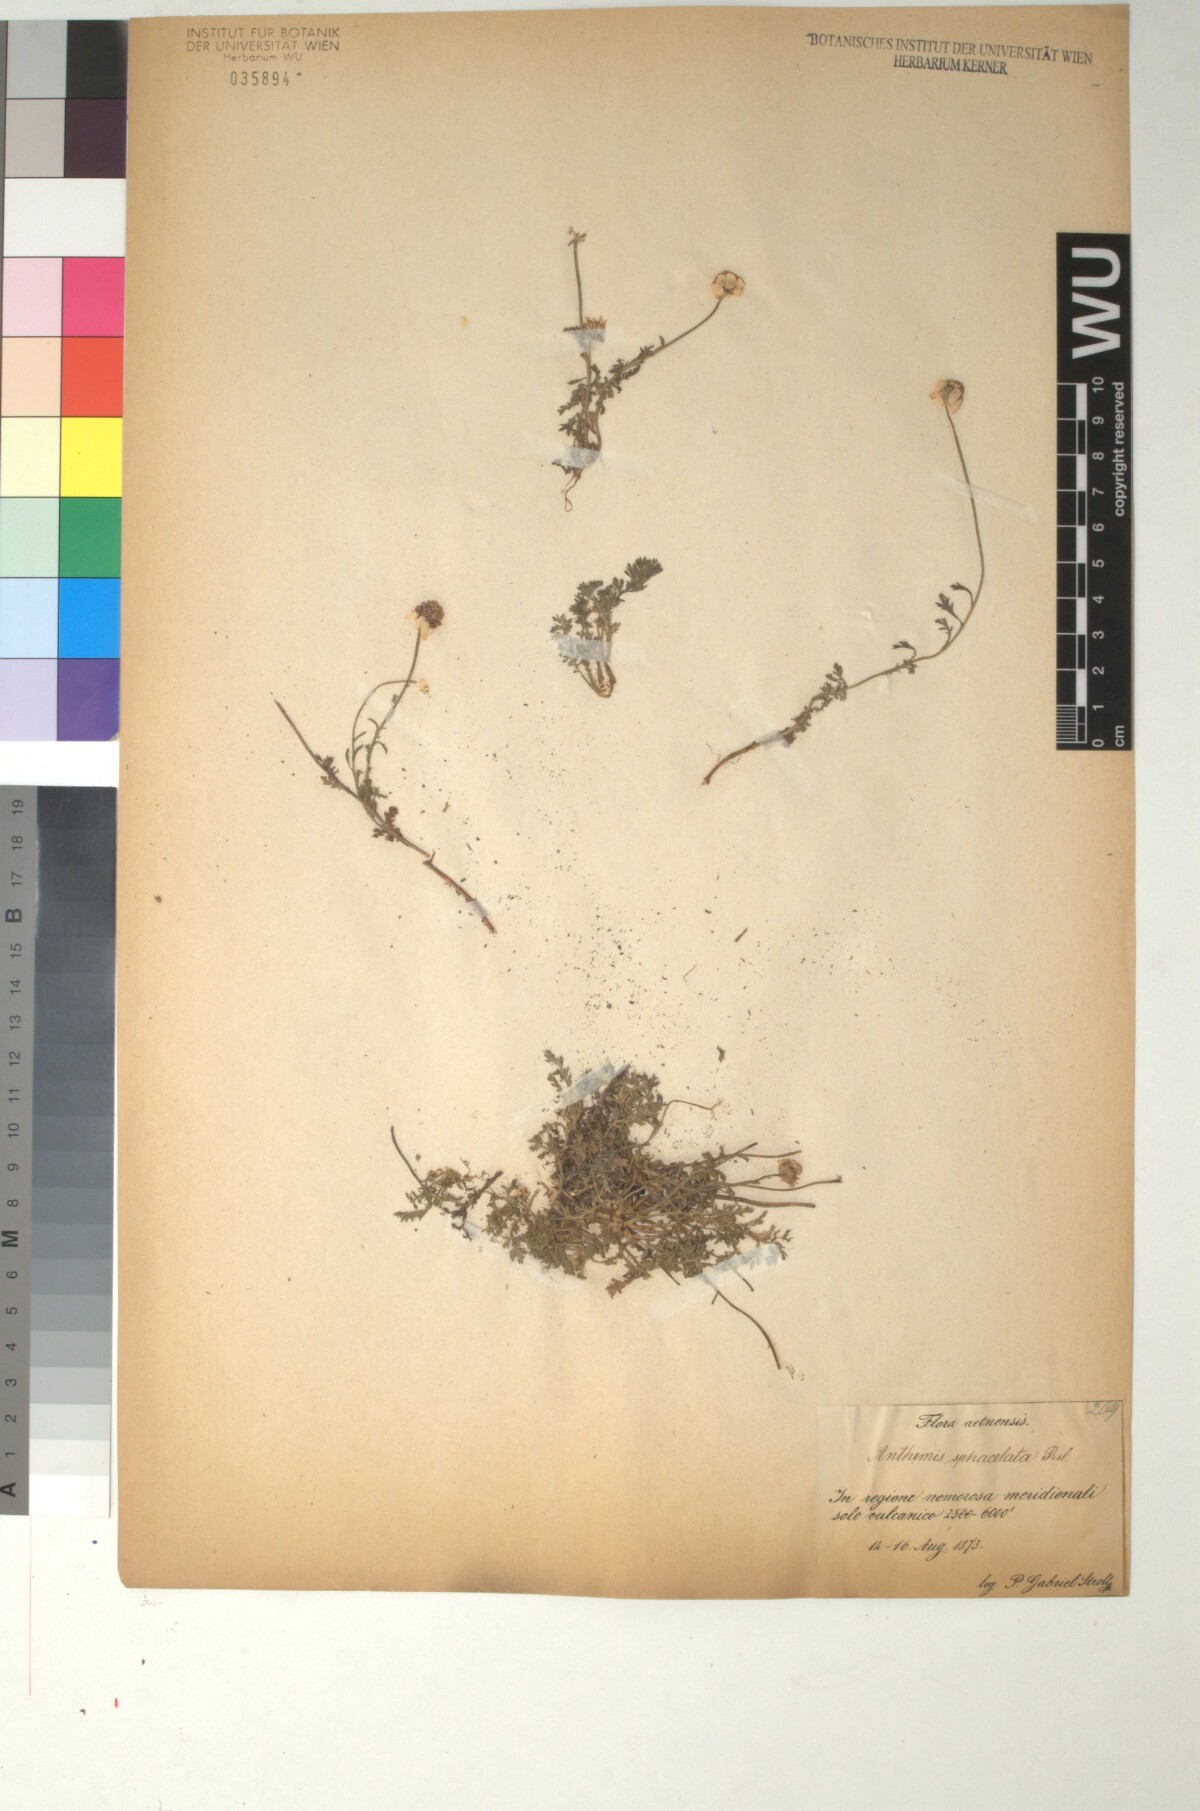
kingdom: Plantae
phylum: Tracheophyta
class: Magnoliopsida
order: Asterales
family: Asteraceae
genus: Anthemis
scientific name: Anthemis arvensis
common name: Corn chamomile
